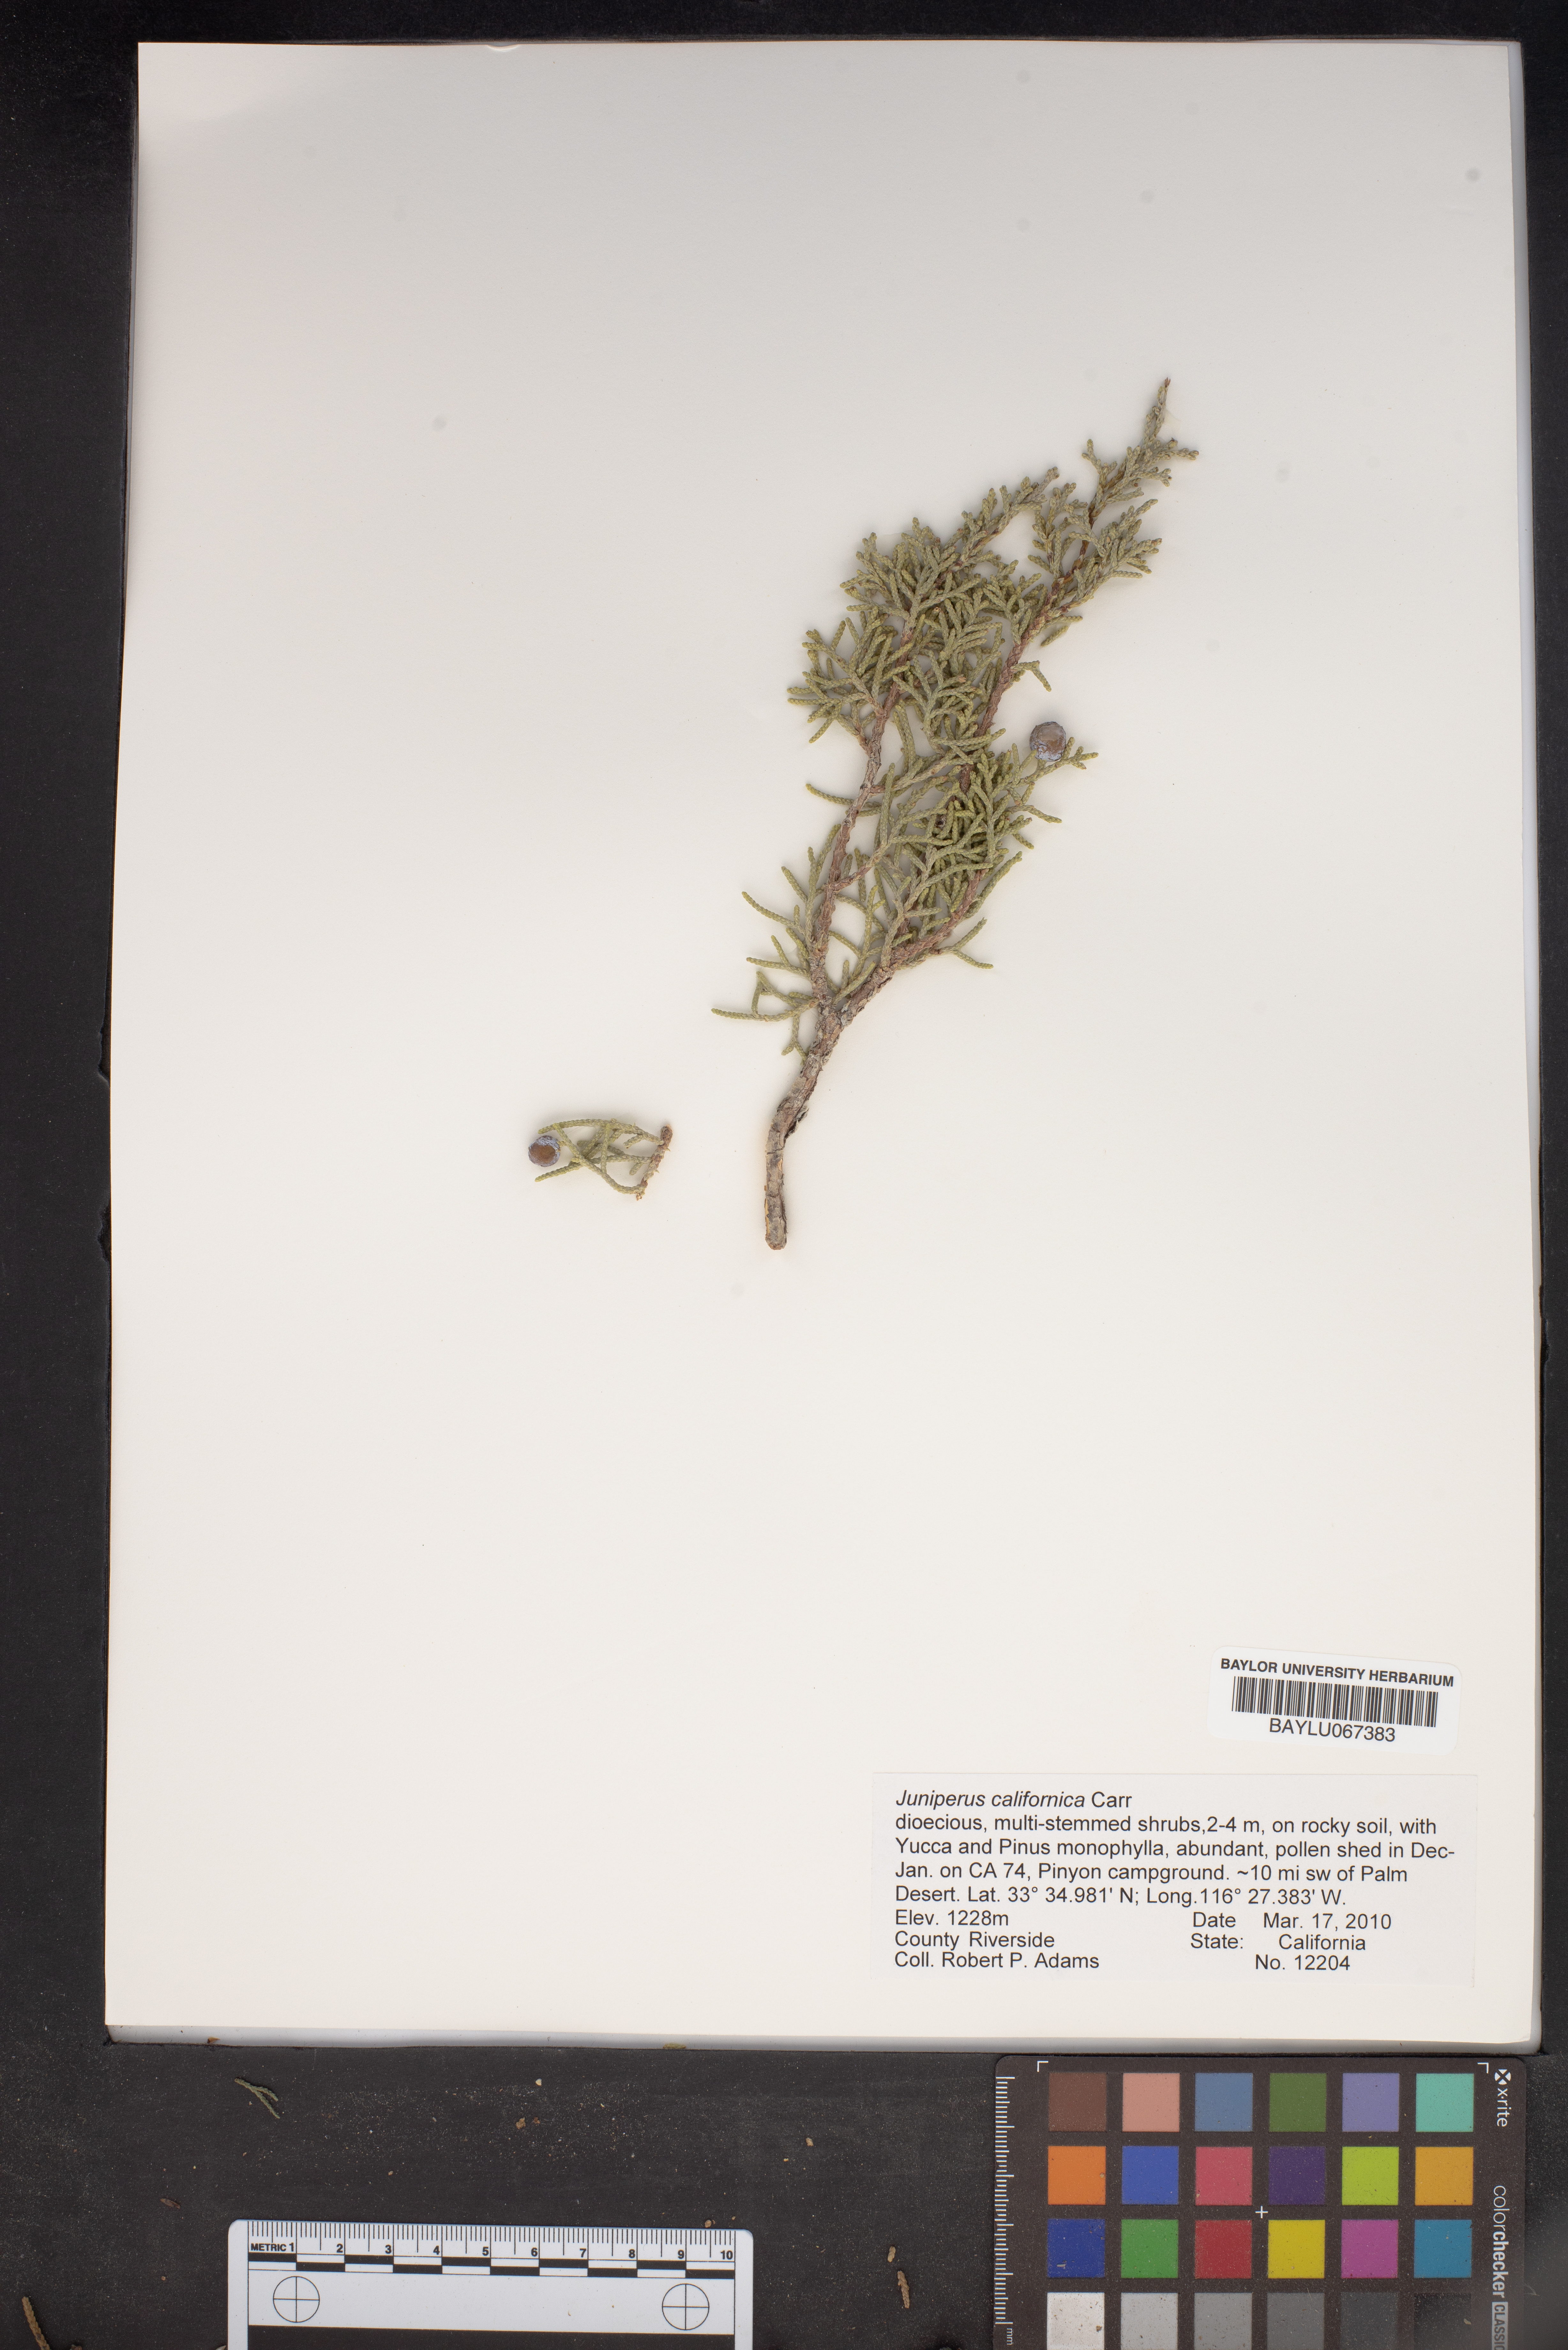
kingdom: Plantae
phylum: Tracheophyta
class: Pinopsida
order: Pinales
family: Cupressaceae
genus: Juniperus
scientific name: Juniperus californica
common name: California juniper
